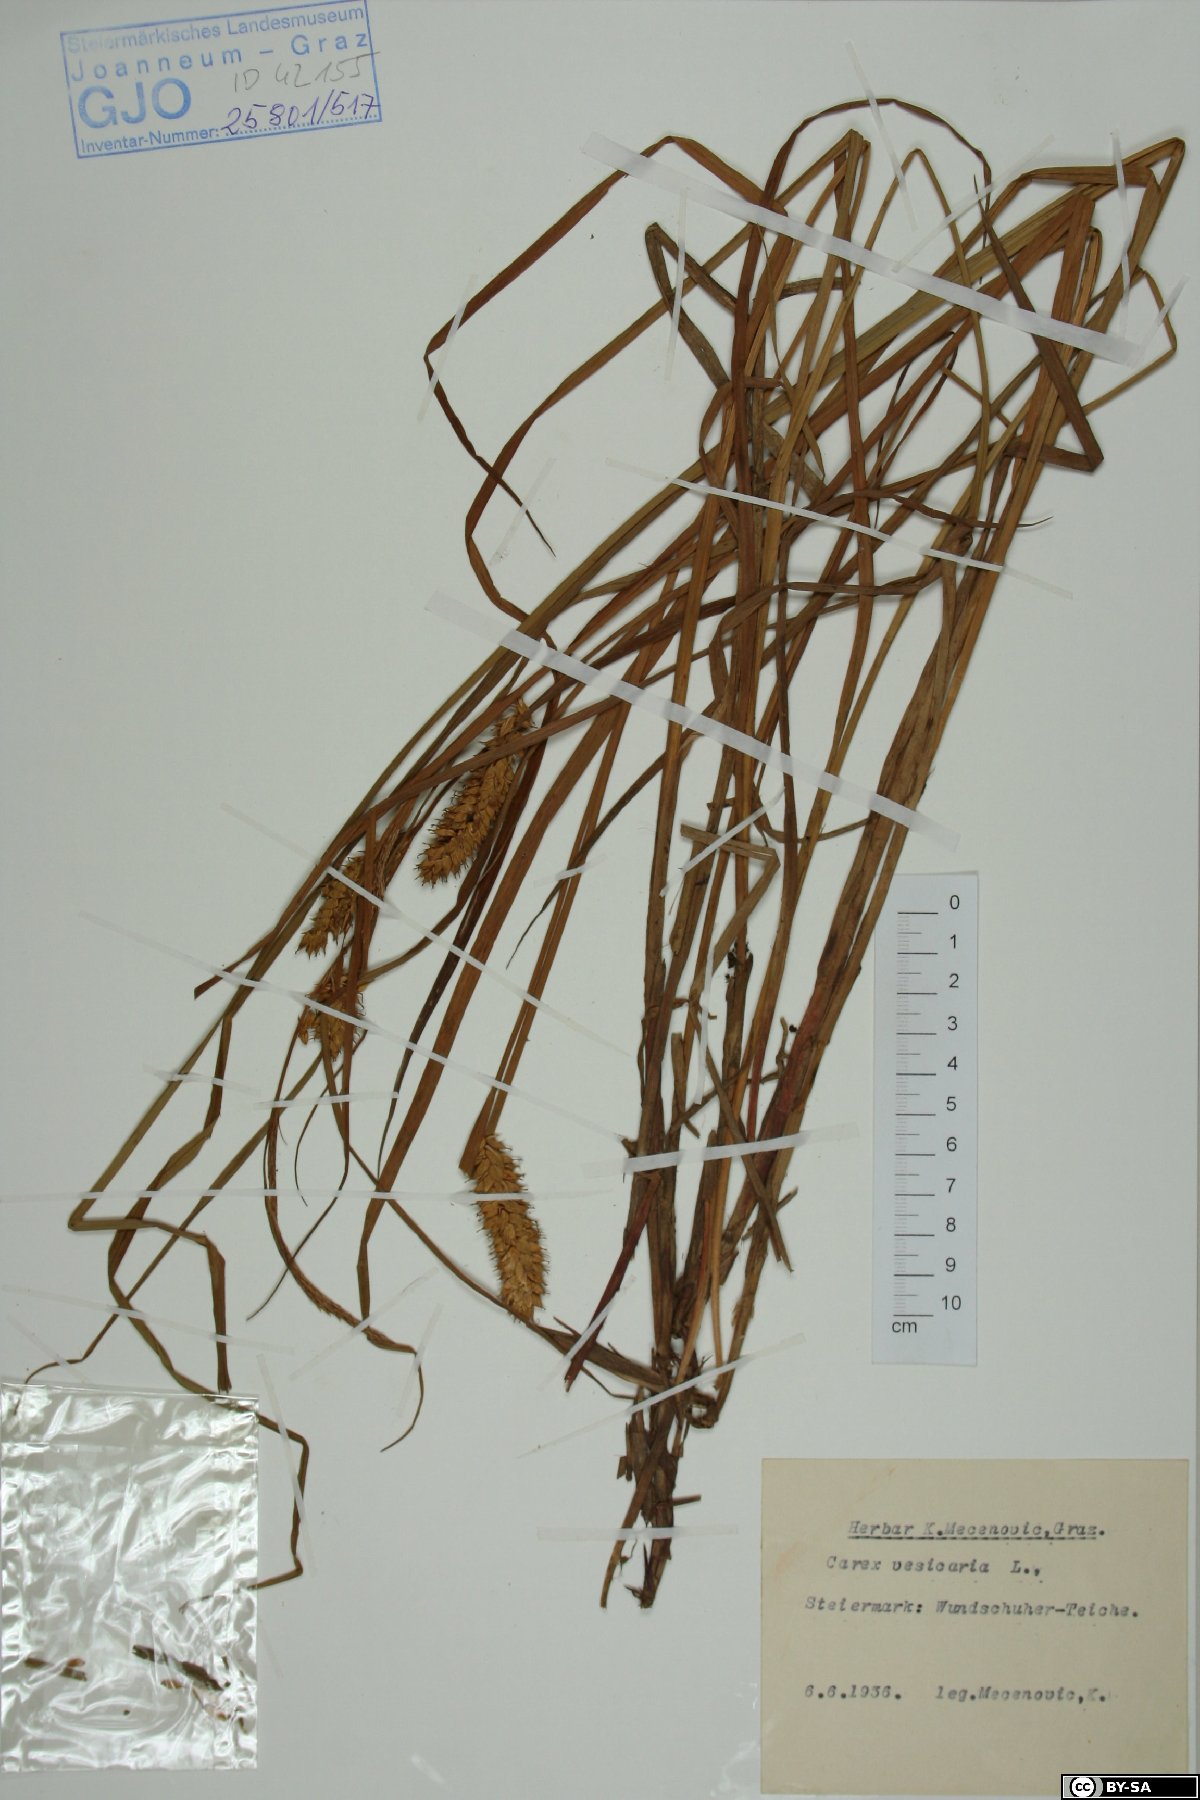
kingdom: Plantae
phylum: Tracheophyta
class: Liliopsida
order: Poales
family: Cyperaceae
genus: Carex
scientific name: Carex vesicaria
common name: Bladder-sedge
